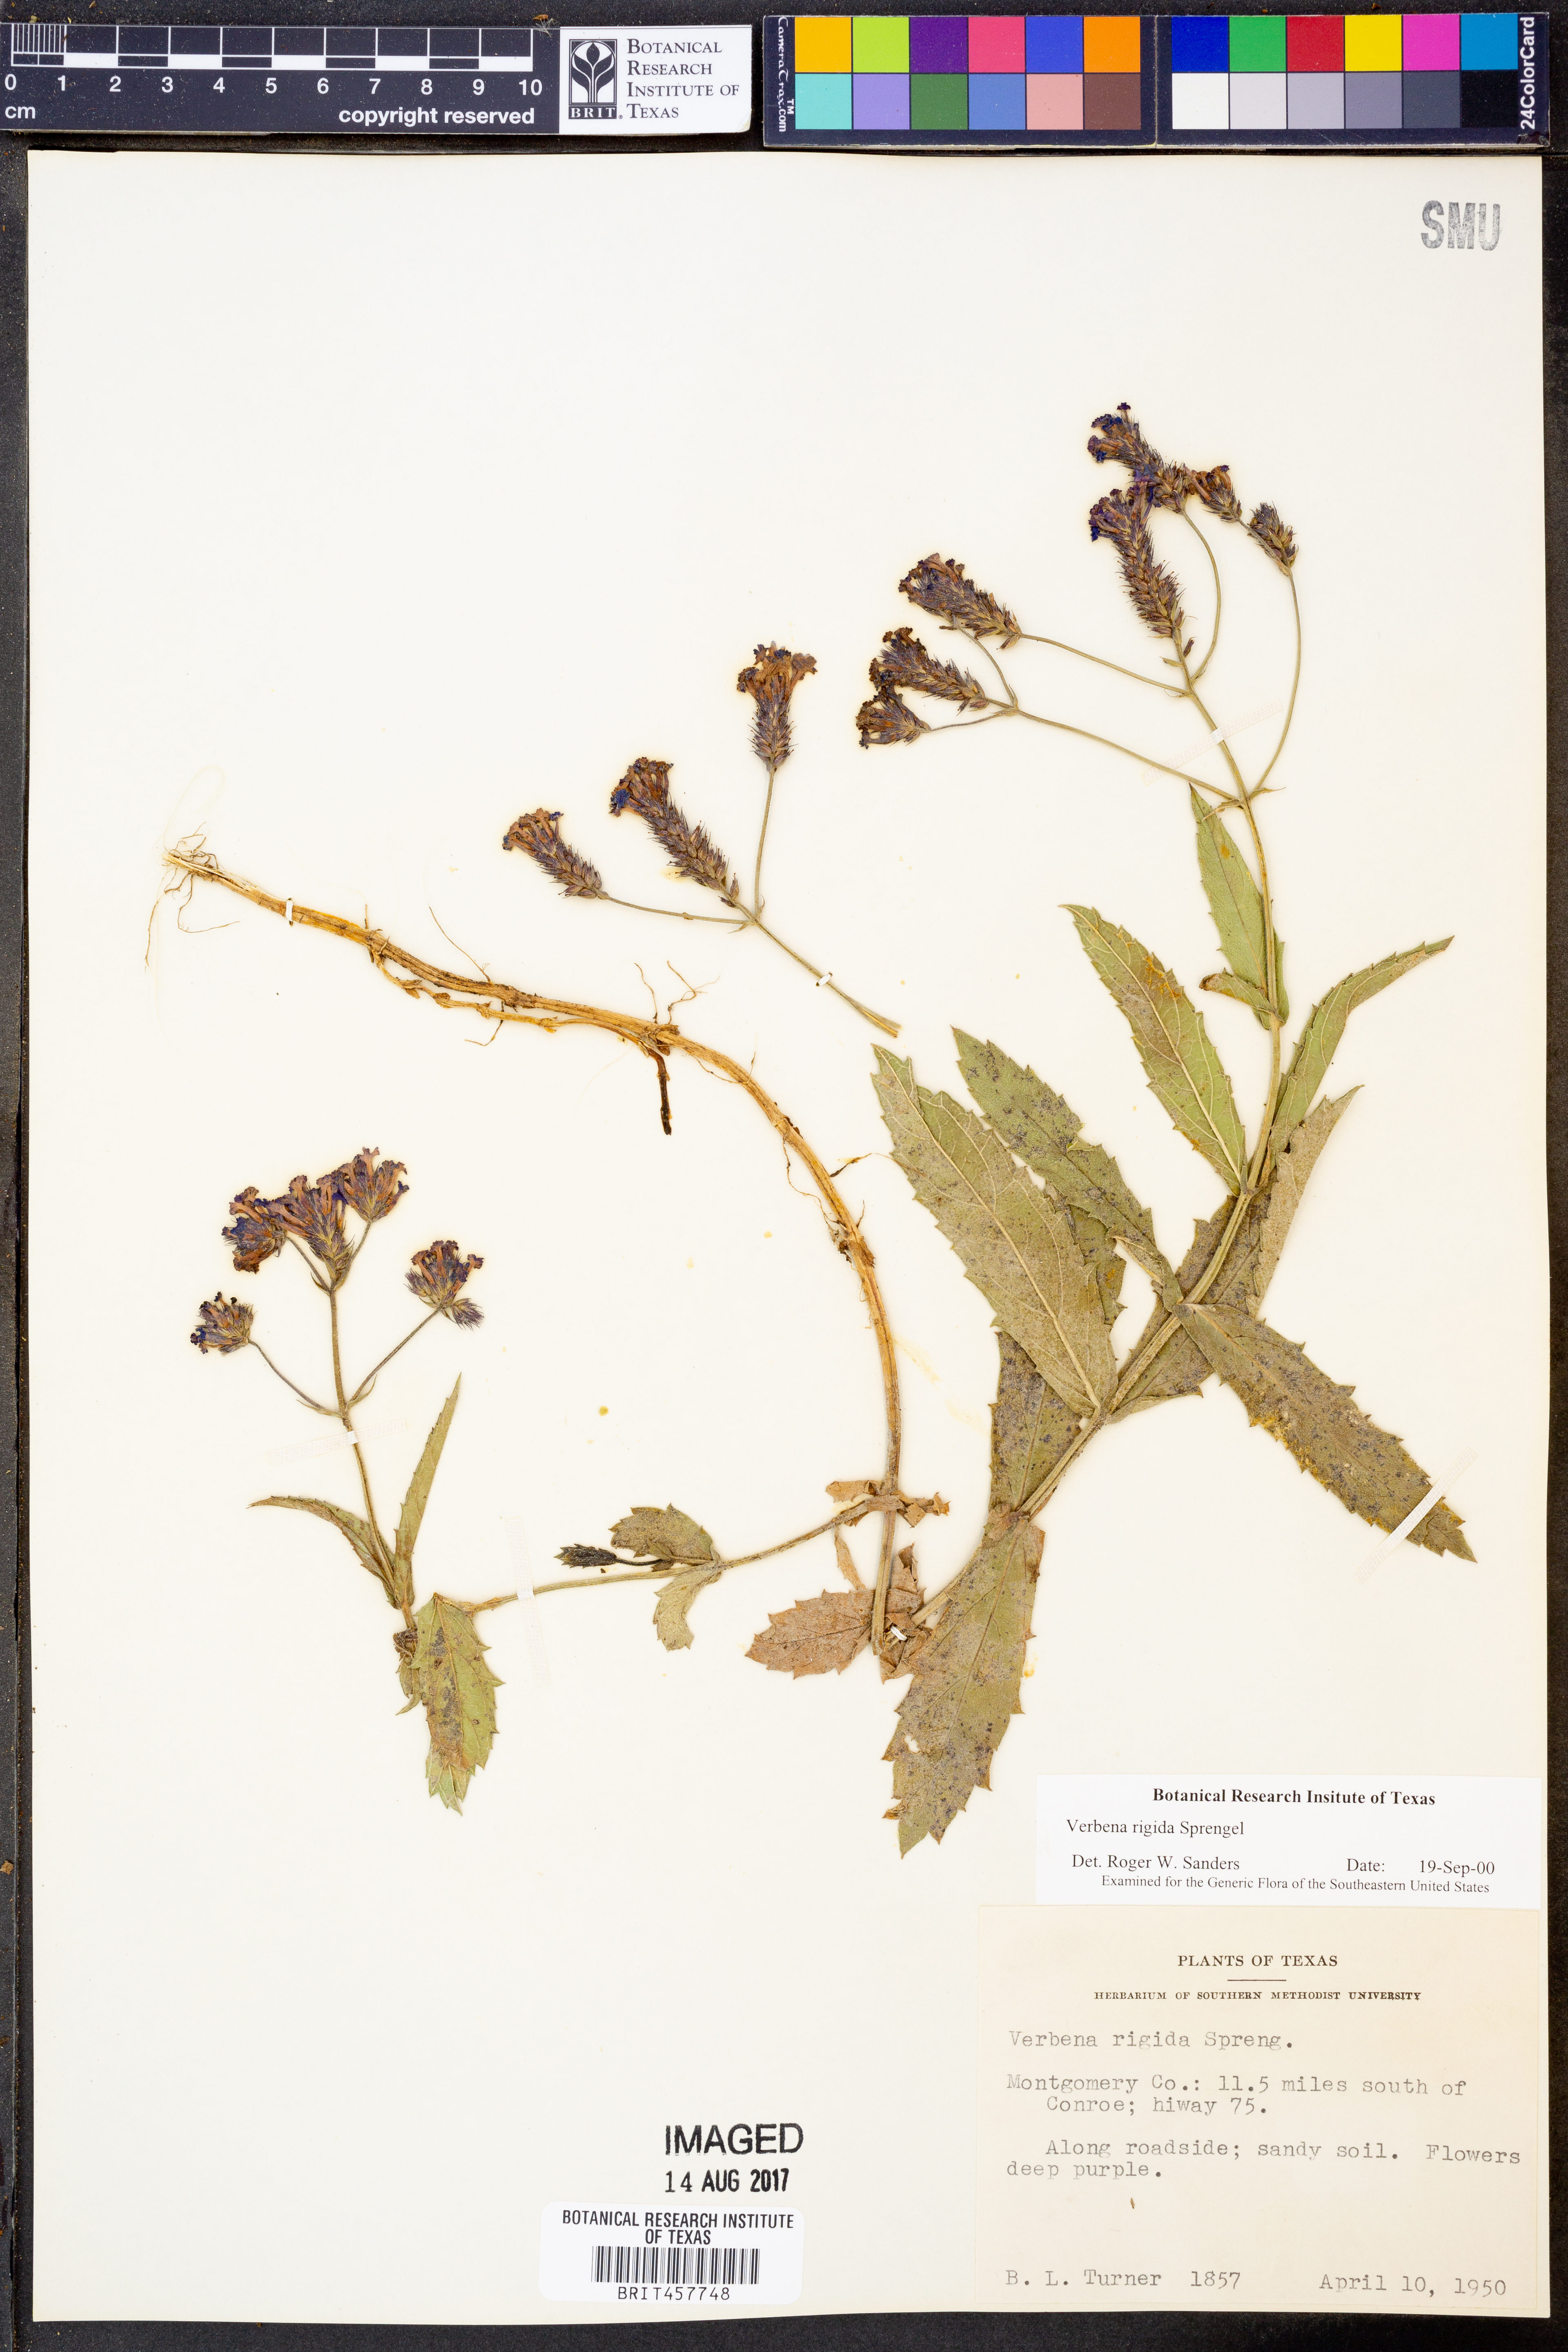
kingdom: Plantae
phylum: Tracheophyta
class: Magnoliopsida
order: Lamiales
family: Verbenaceae
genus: Verbena
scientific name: Verbena rigida
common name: Slender vervain
